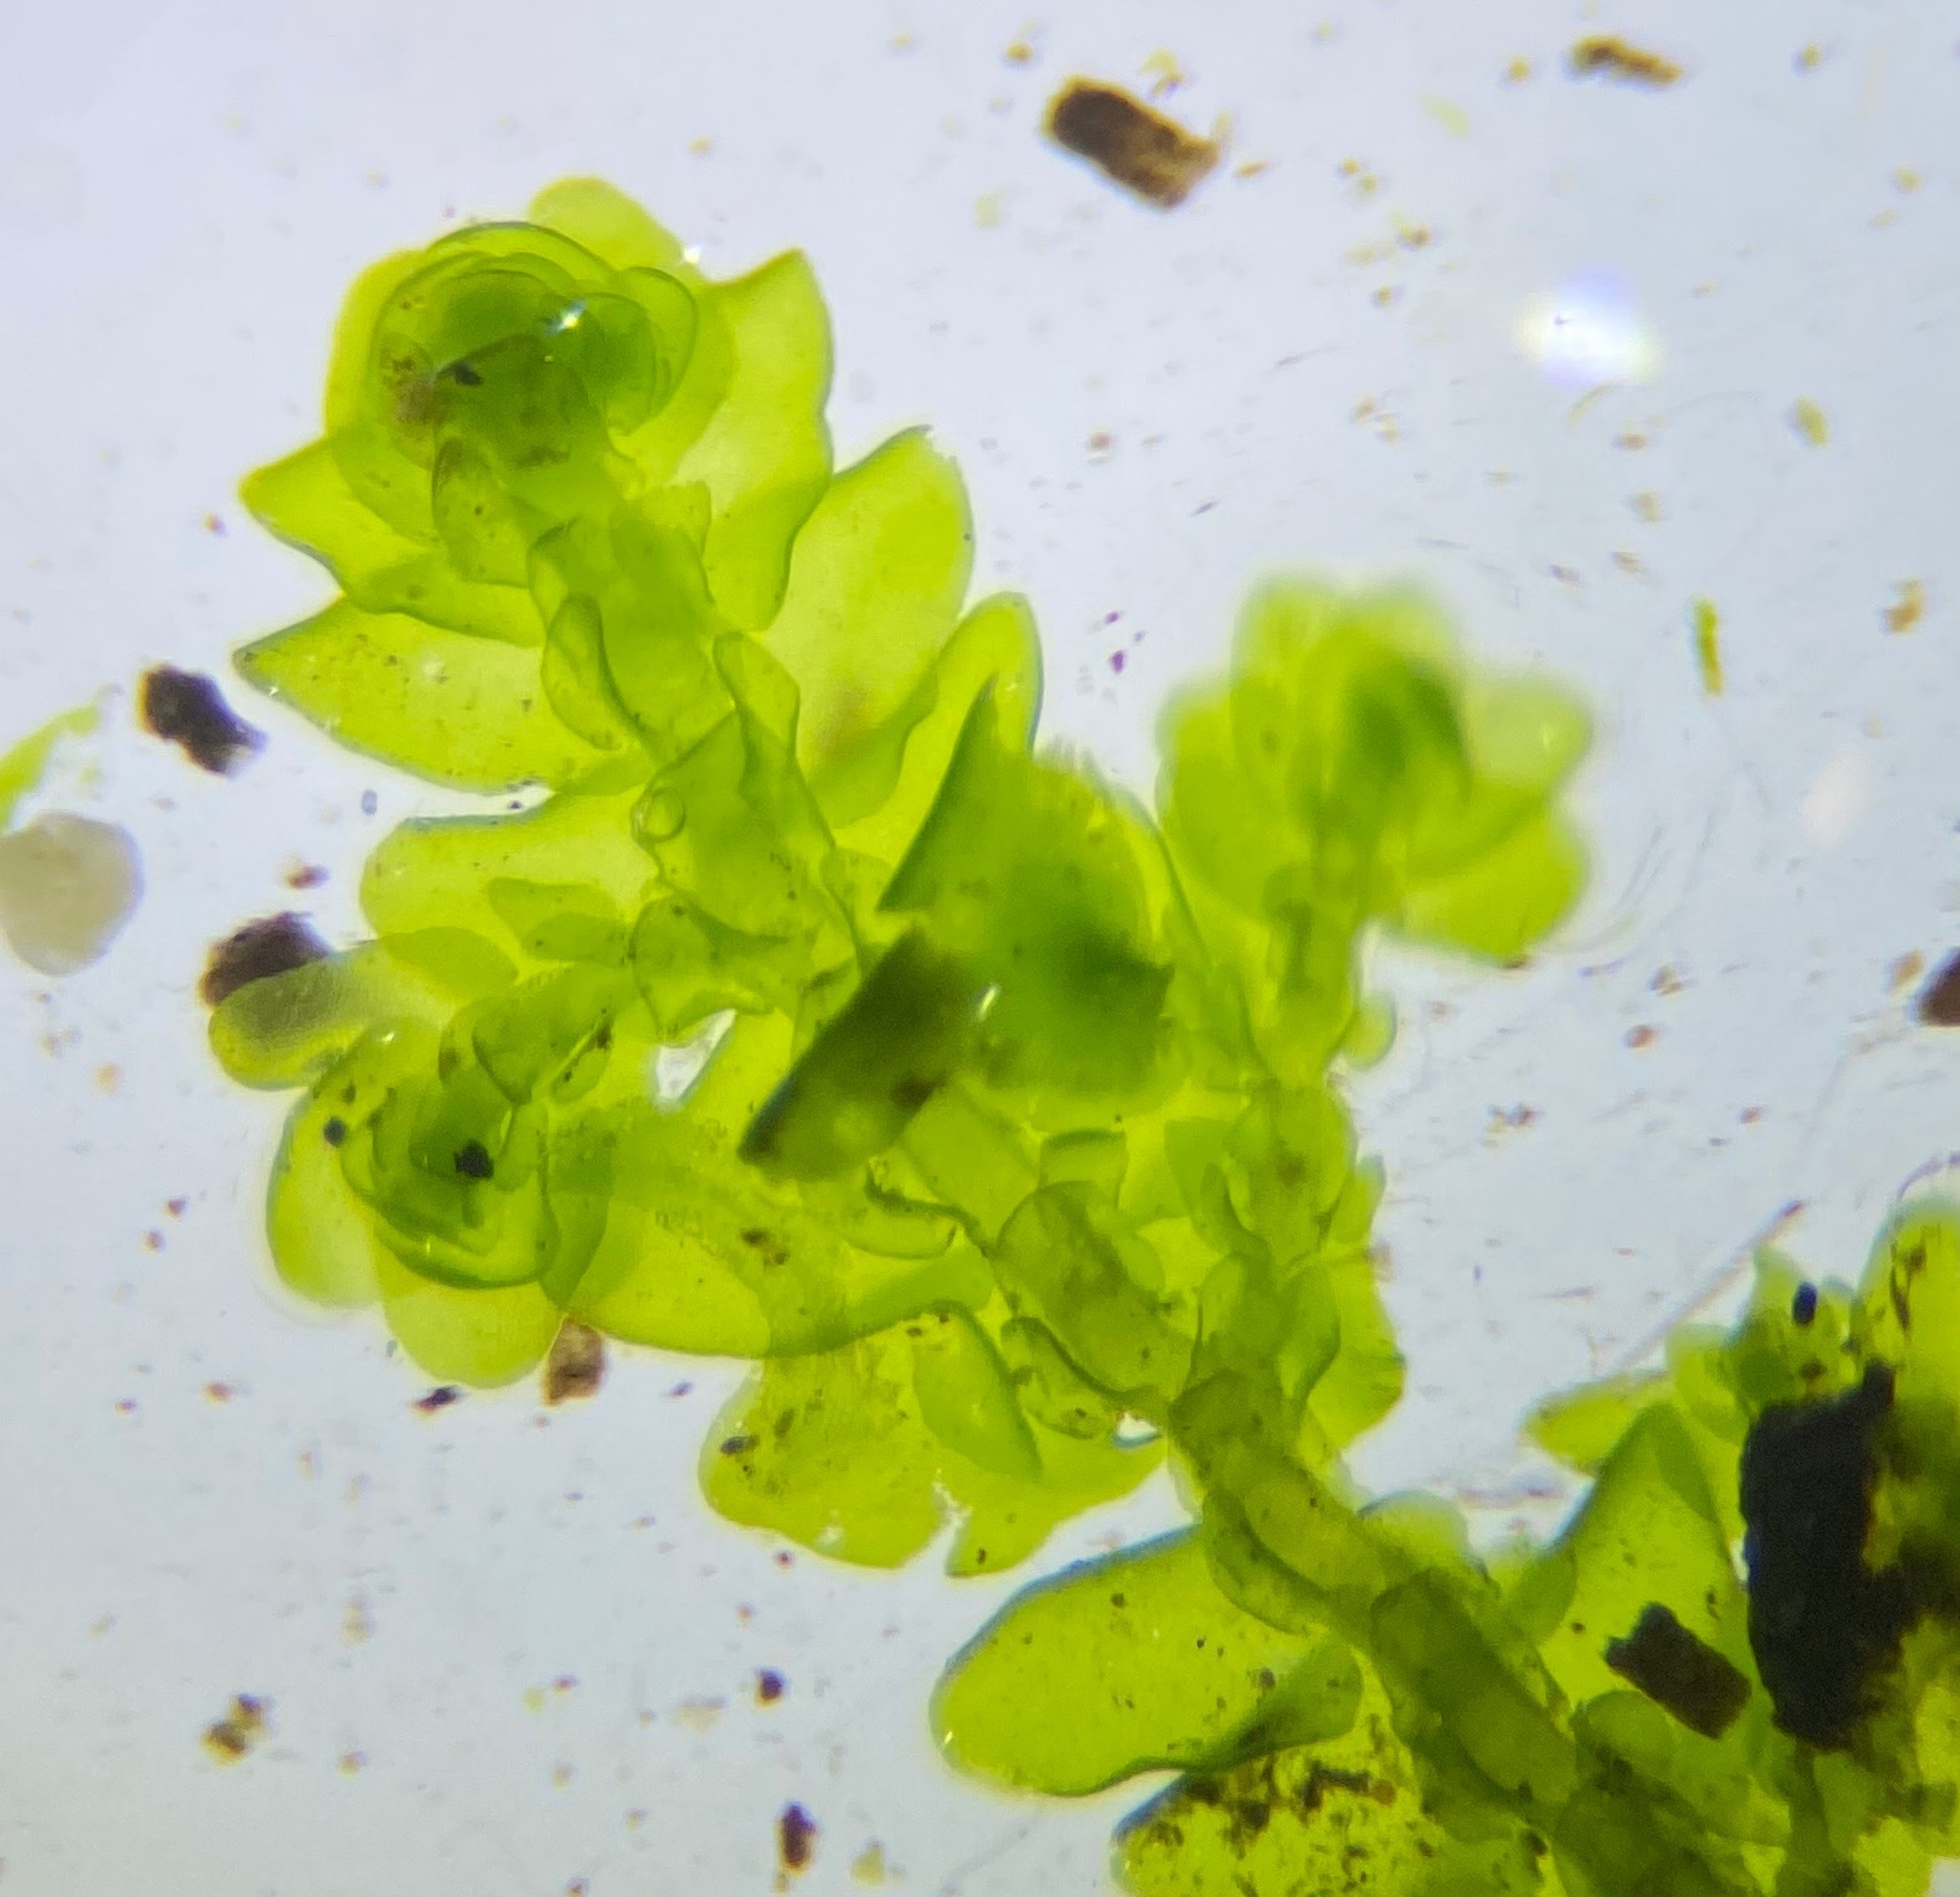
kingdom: Plantae
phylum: Marchantiophyta
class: Jungermanniopsida
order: Porellales
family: Porellaceae
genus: Porella
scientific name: Porella platyphylla
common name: Almindelig skælryg
